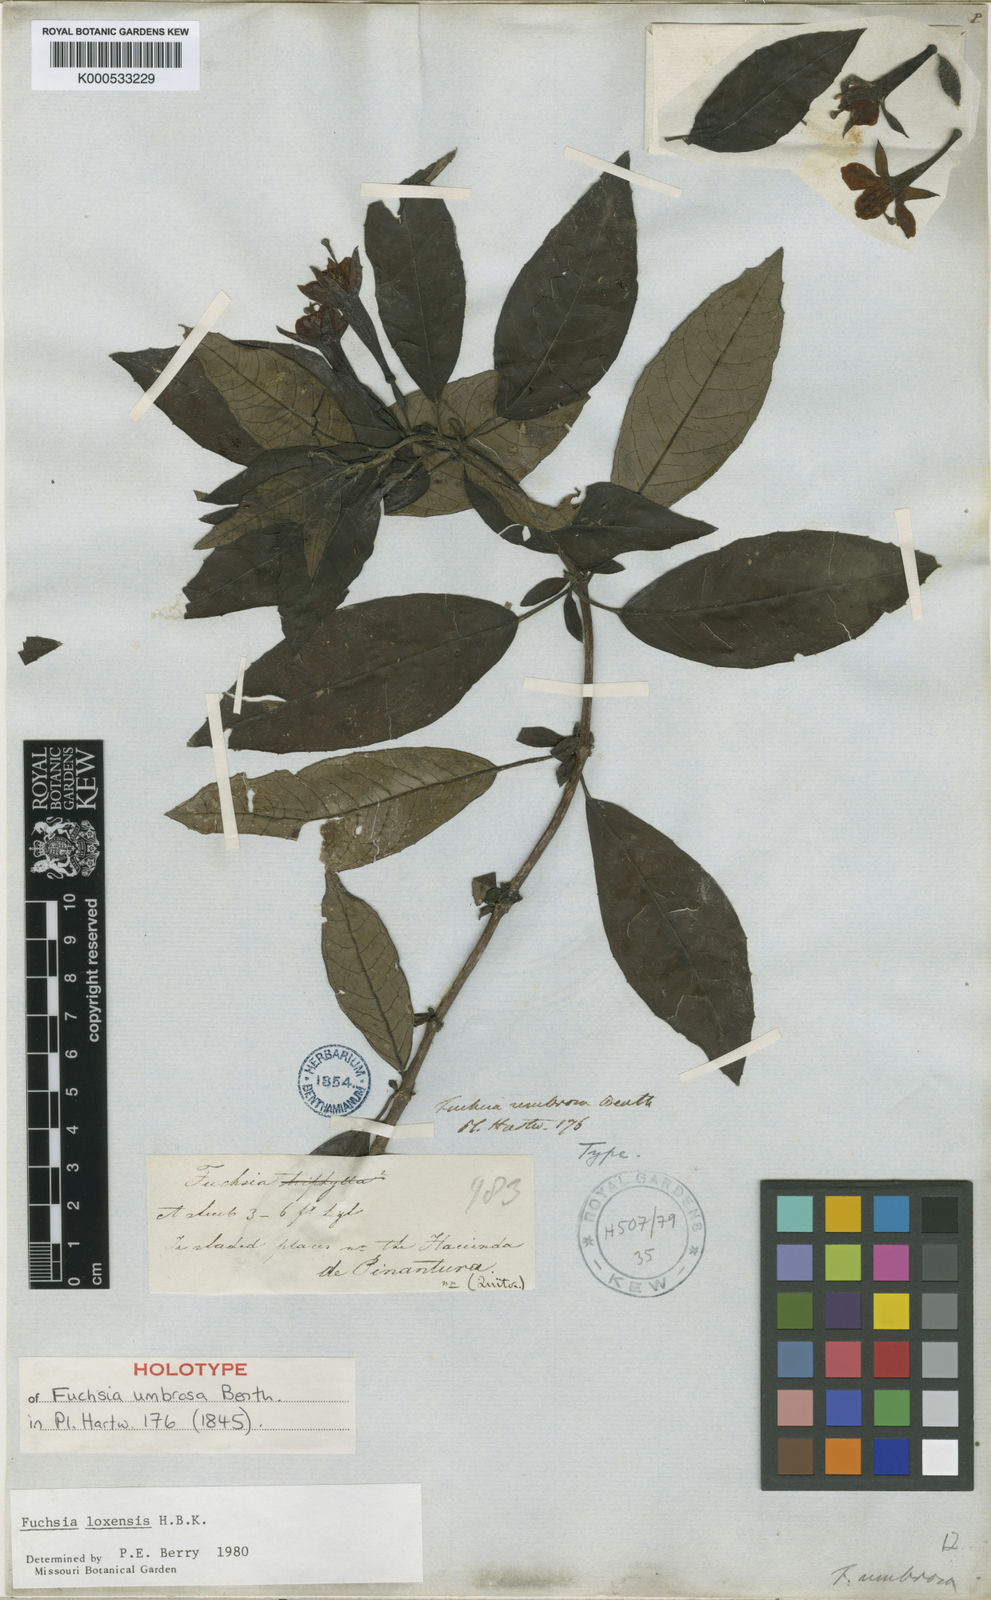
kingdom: Plantae
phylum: Tracheophyta
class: Magnoliopsida
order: Myrtales
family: Onagraceae
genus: Fuchsia
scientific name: Fuchsia loxensis
